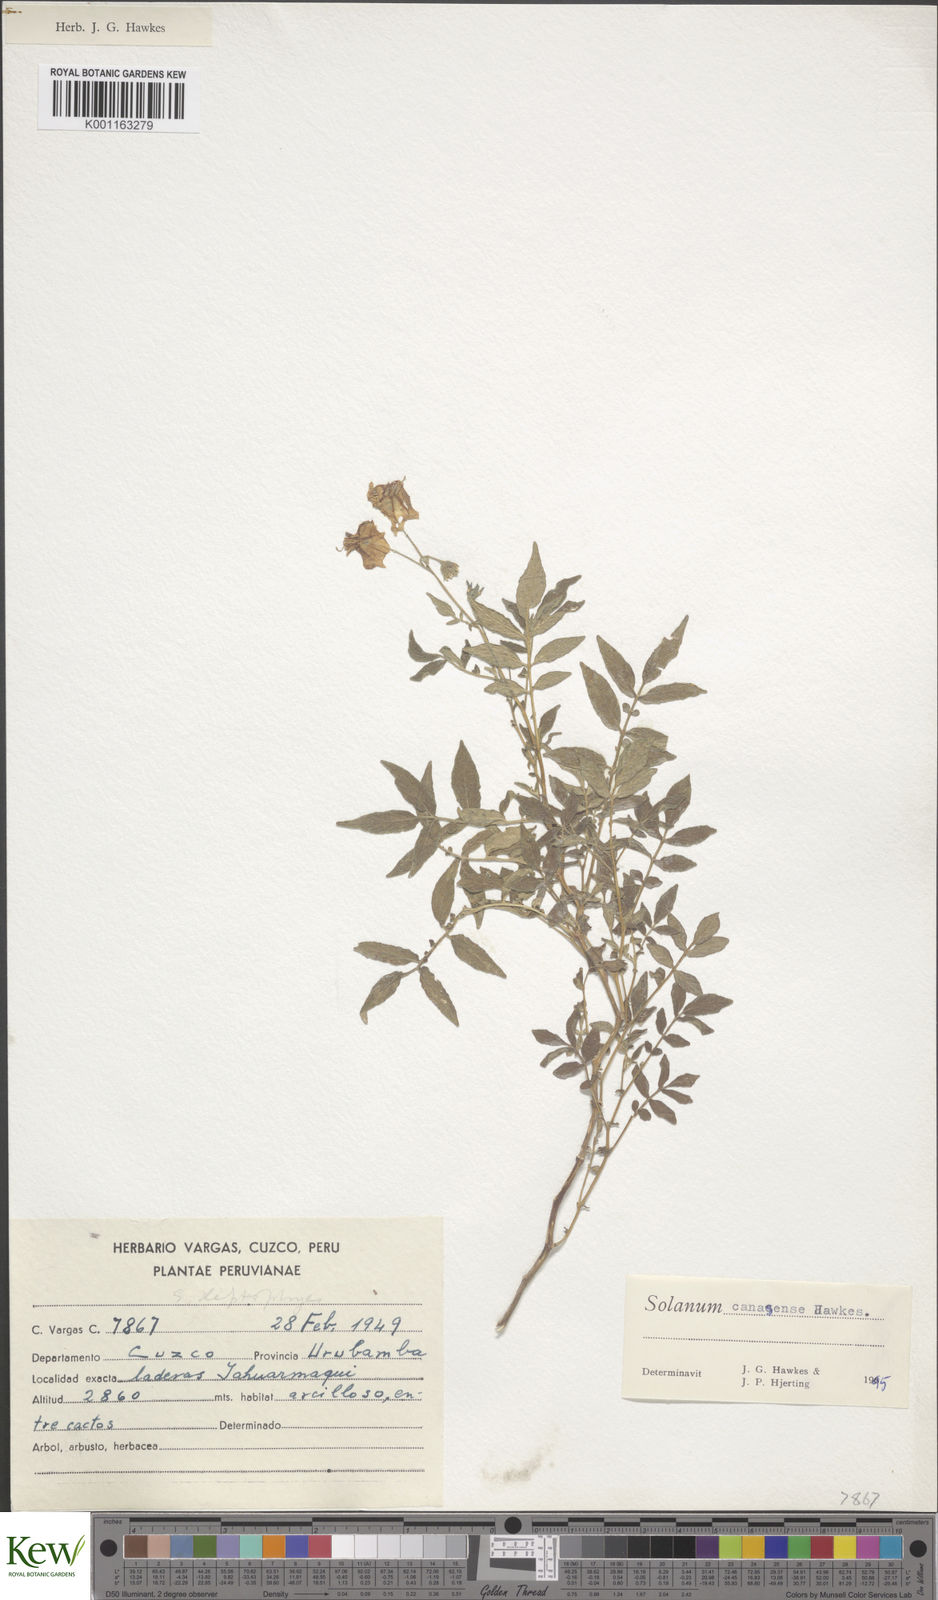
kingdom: Plantae
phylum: Tracheophyta
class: Magnoliopsida
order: Solanales
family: Solanaceae
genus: Solanum
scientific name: Solanum candolleanum
